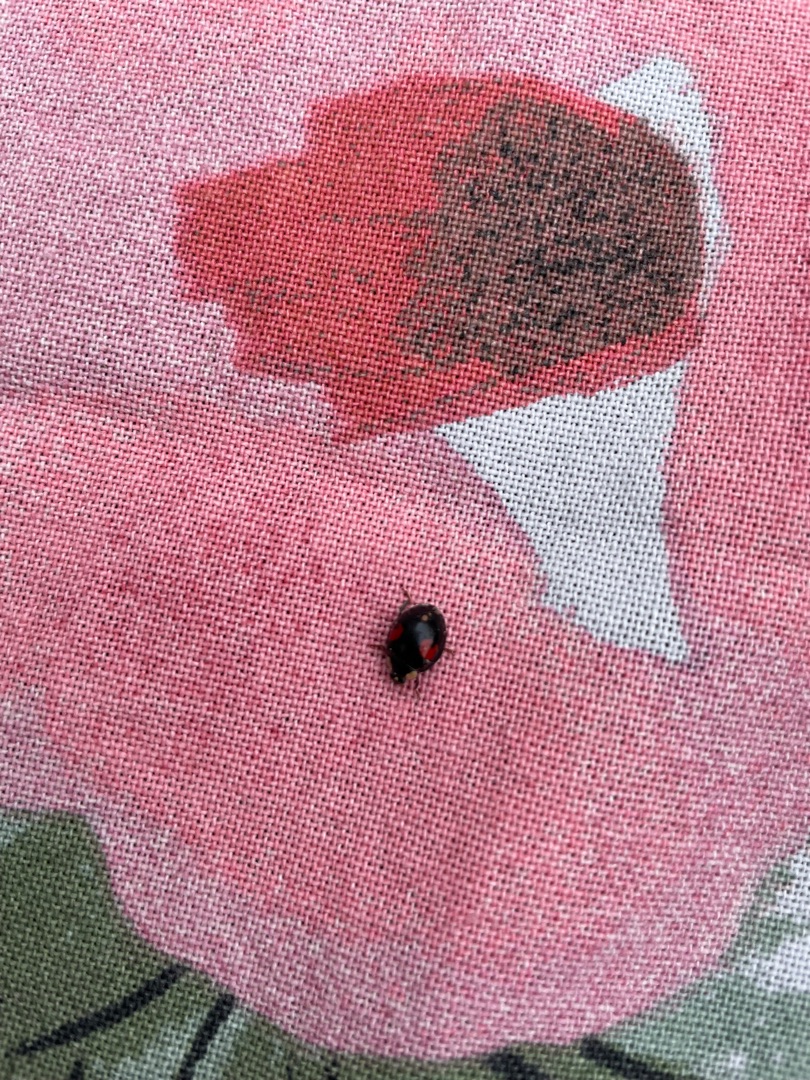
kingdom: Animalia
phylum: Arthropoda
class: Insecta
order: Coleoptera
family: Coccinellidae
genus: Harmonia
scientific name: Harmonia axyridis
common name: Harlekinmariehøne
